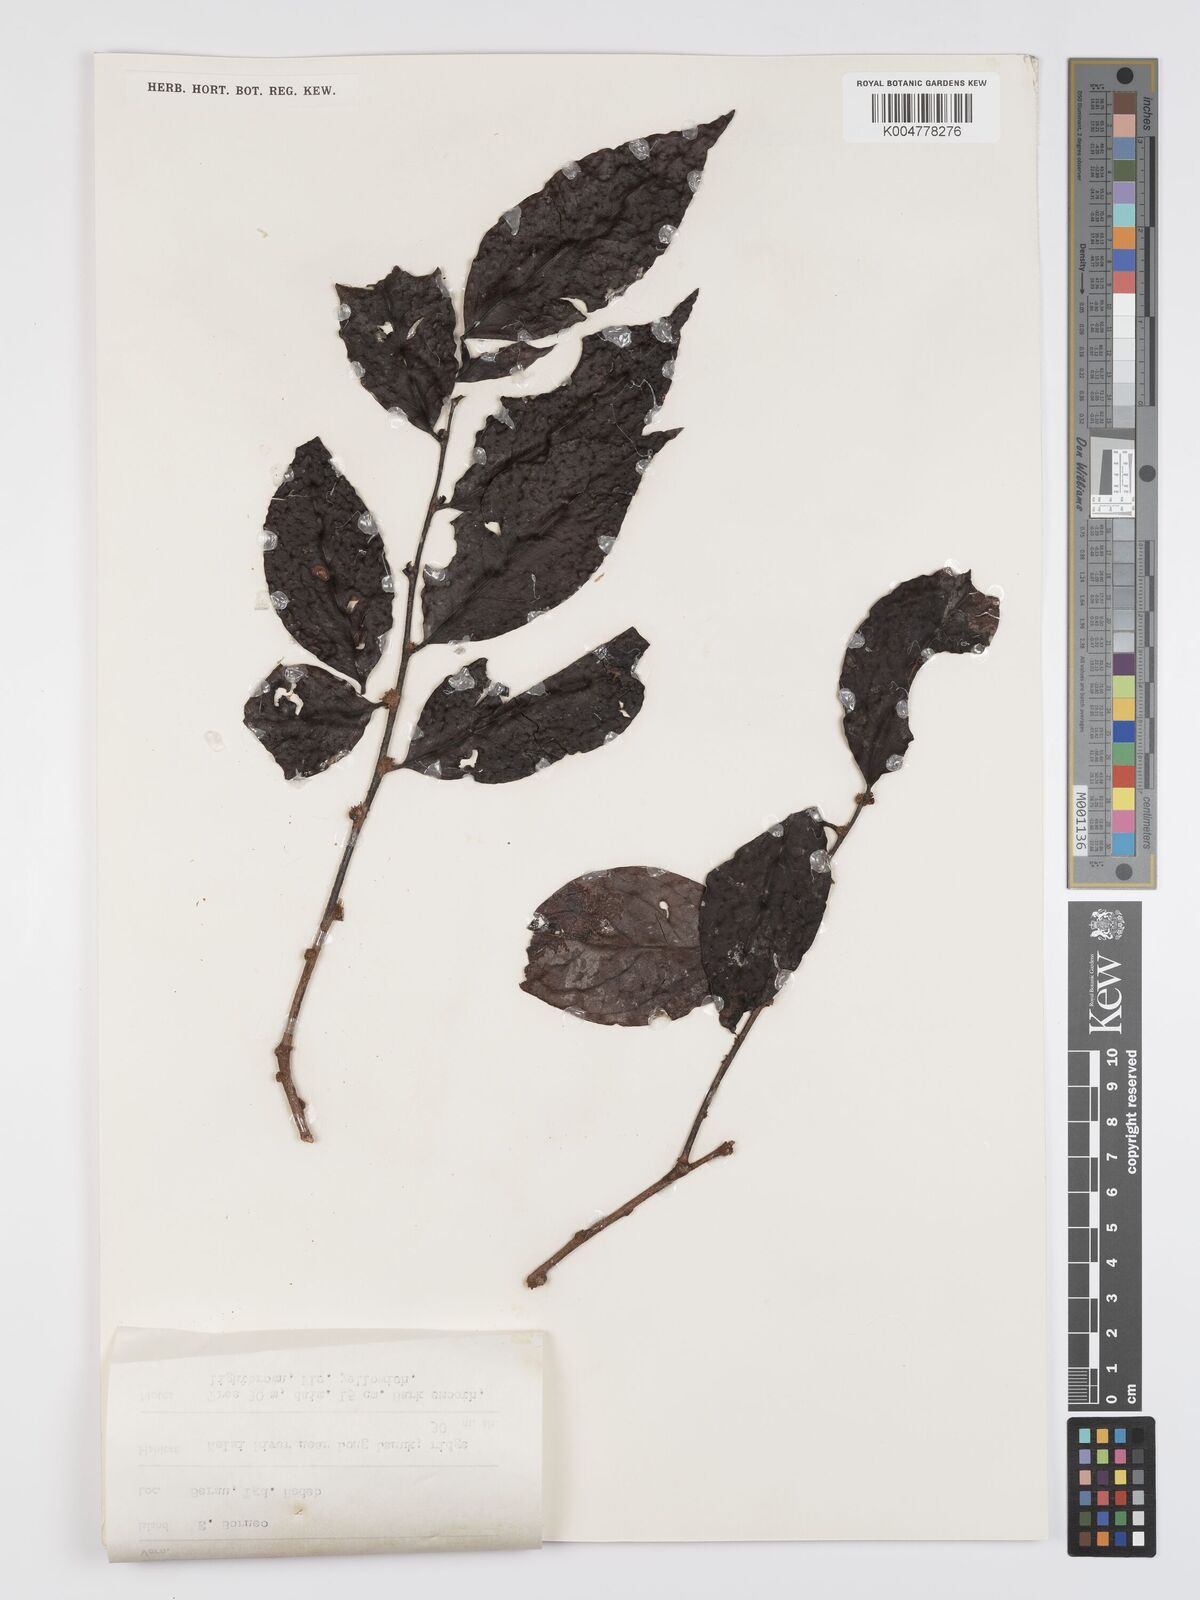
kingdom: Plantae
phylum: Tracheophyta
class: Magnoliopsida
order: Malpighiales
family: Peraceae
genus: Chaetocarpus
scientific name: Chaetocarpus castanocarpus
